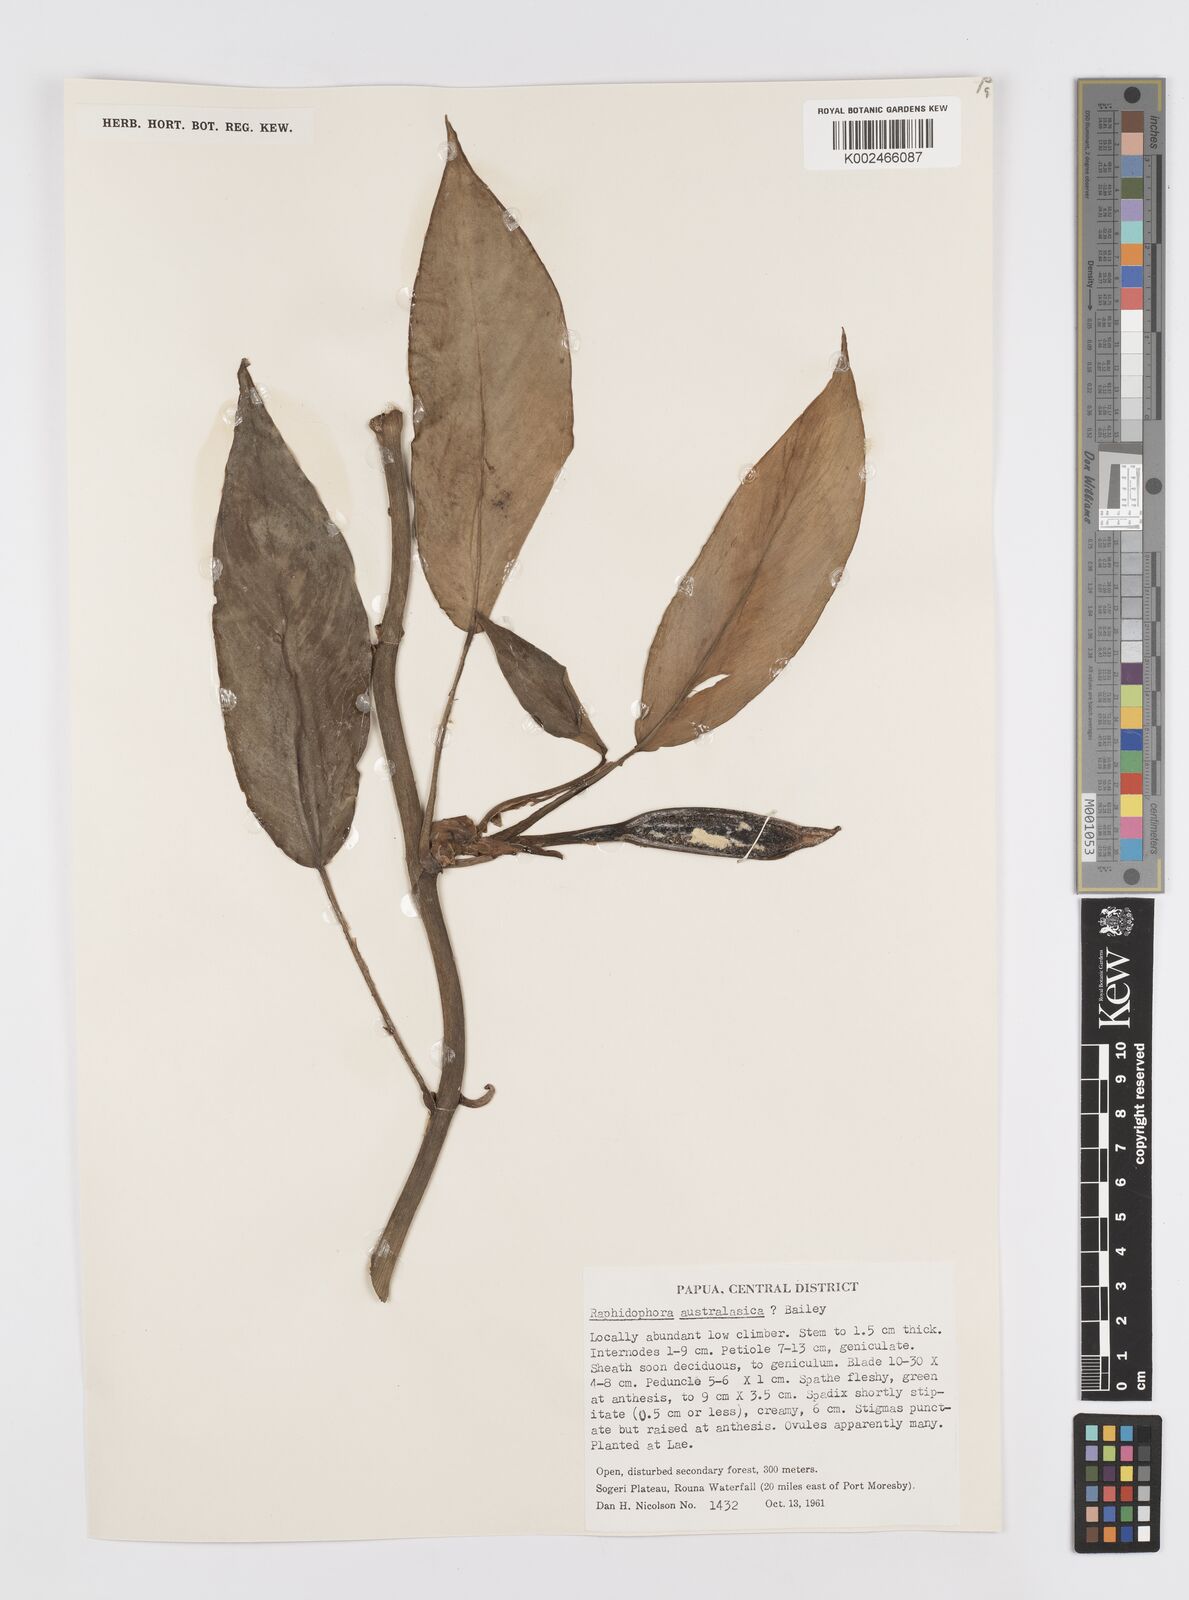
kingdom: Plantae
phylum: Tracheophyta
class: Liliopsida
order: Alismatales
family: Araceae
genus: Rhaphidophora
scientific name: Rhaphidophora schlechteri
